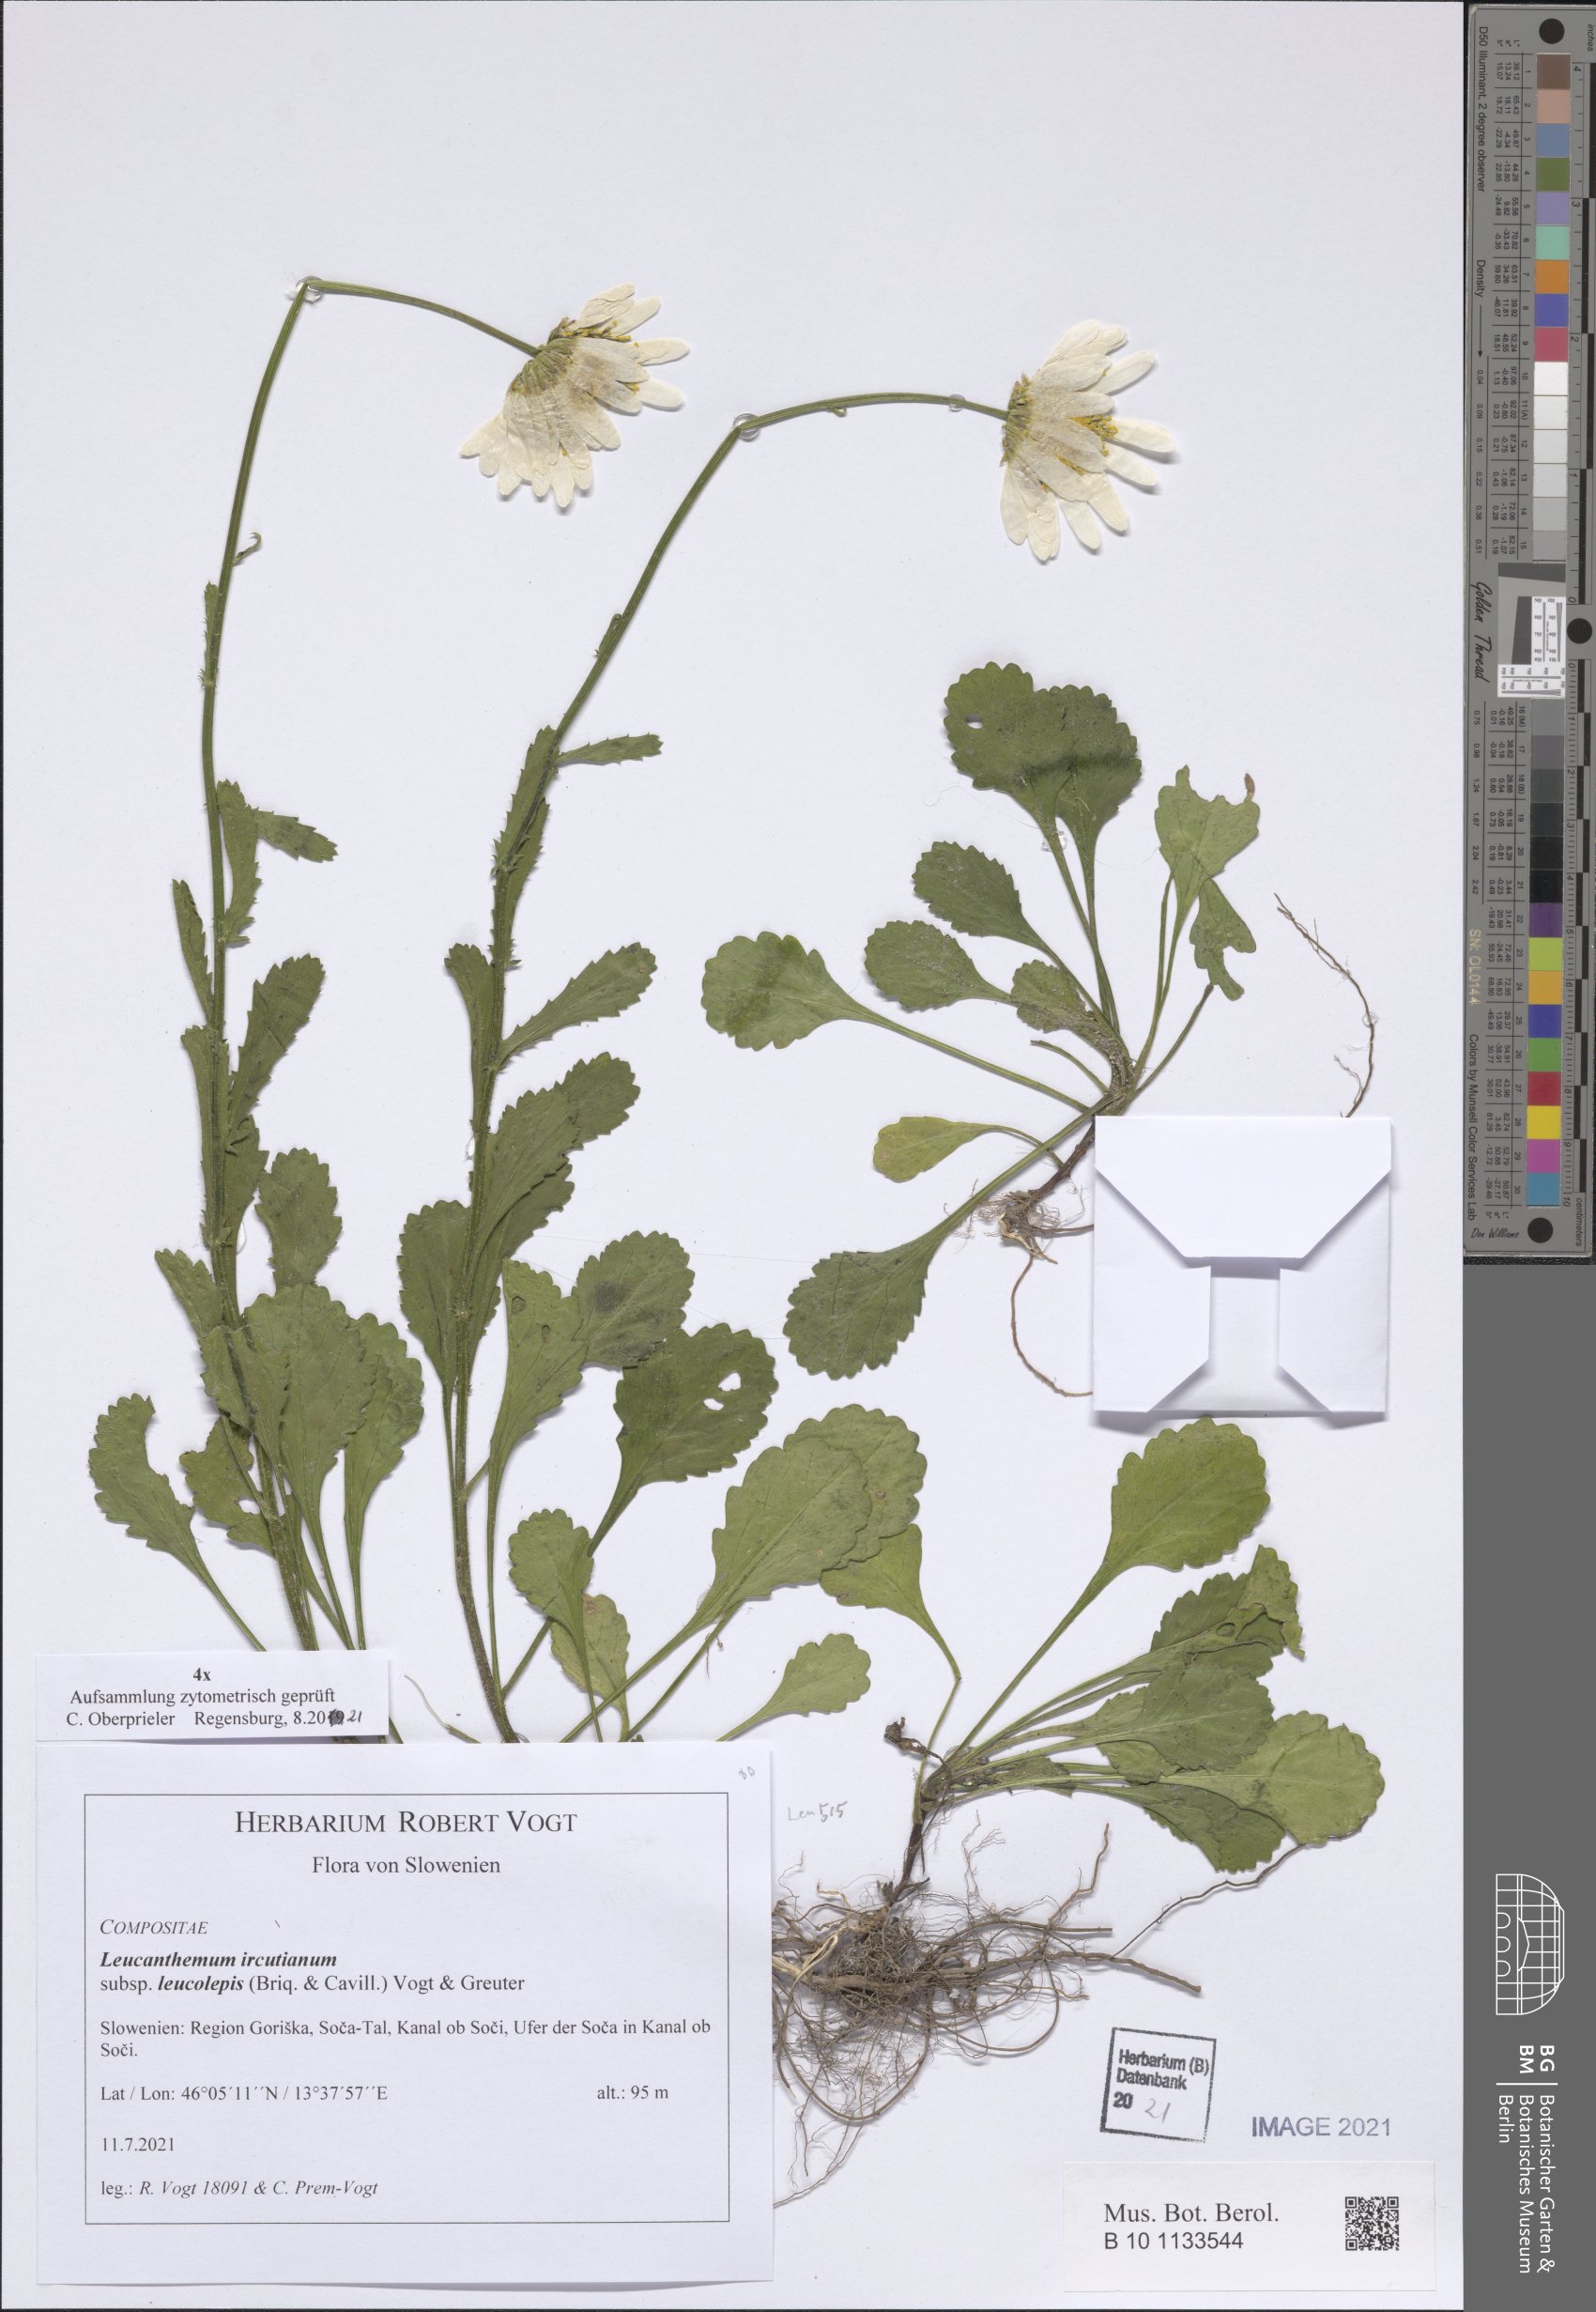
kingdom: Plantae
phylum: Tracheophyta
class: Magnoliopsida
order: Asterales
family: Asteraceae
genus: Leucanthemum
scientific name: Leucanthemum ircutianum
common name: Daisy
